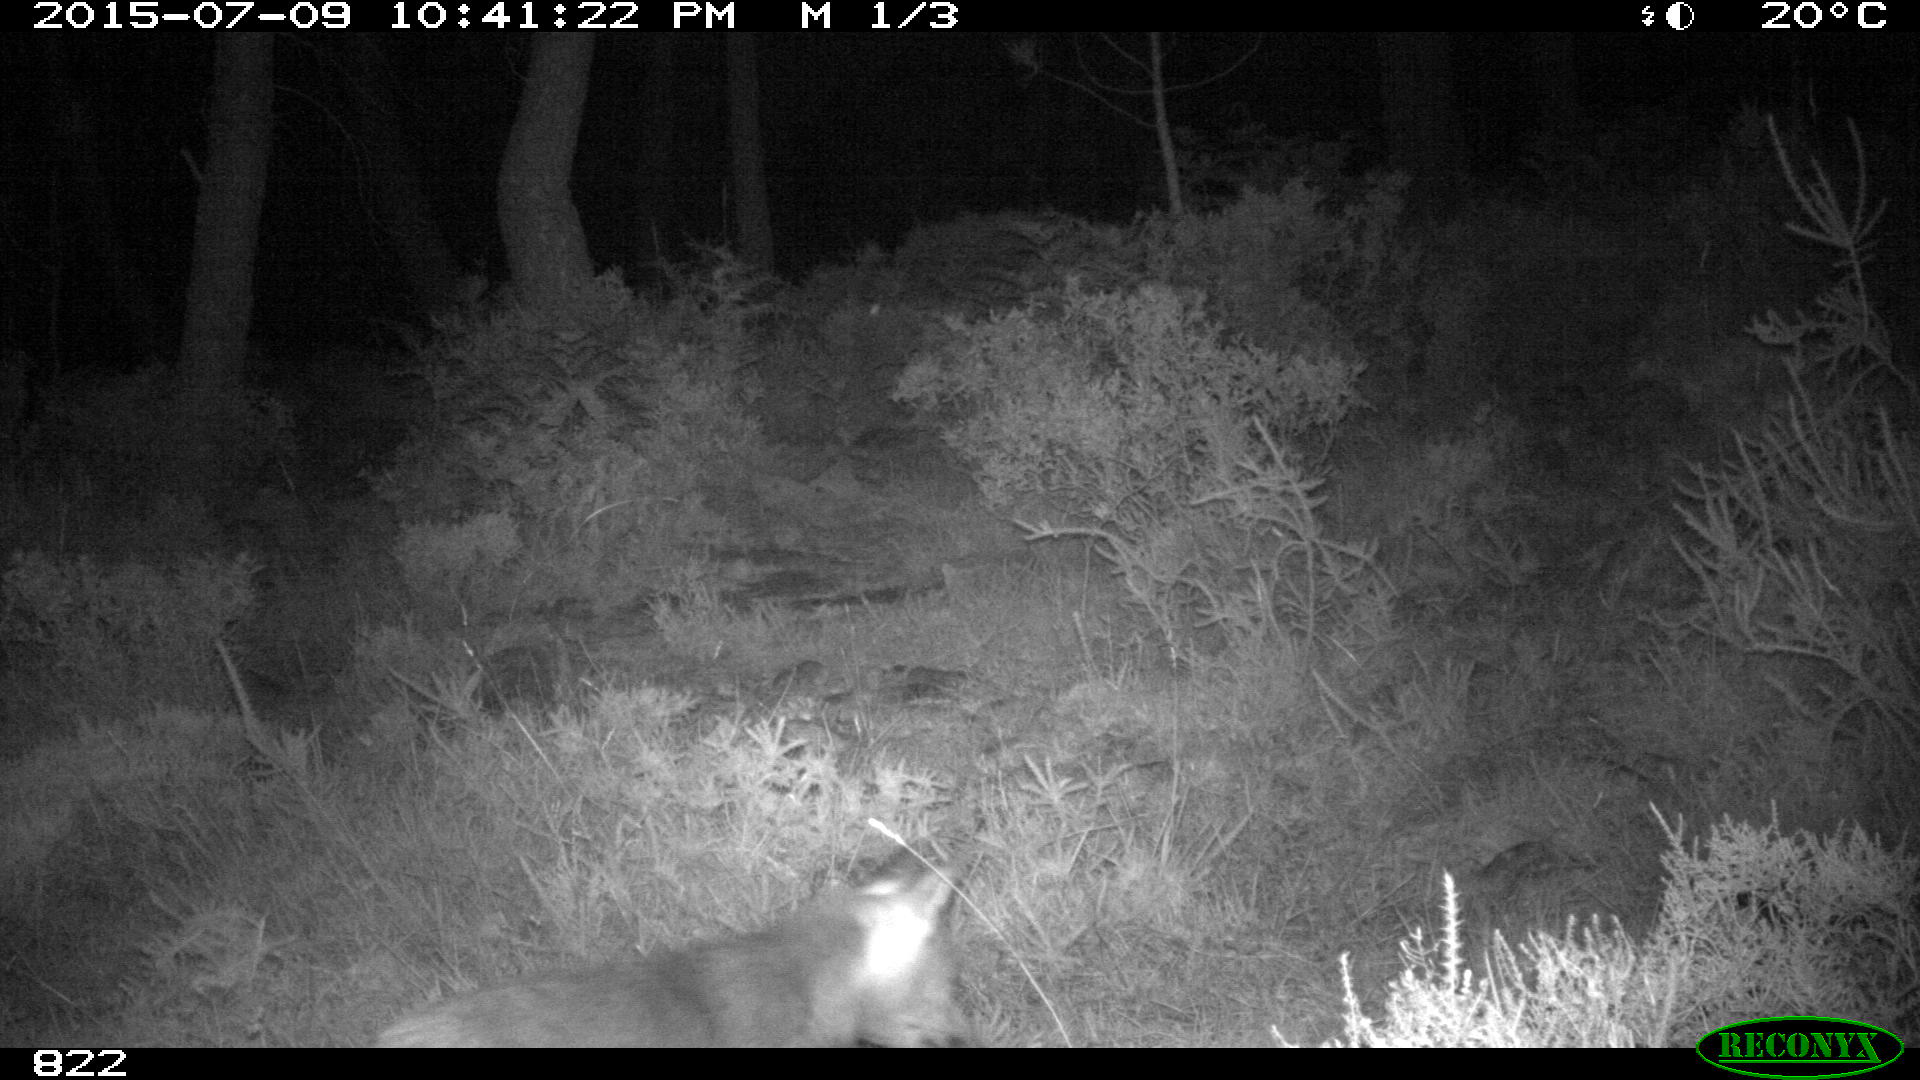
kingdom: Animalia
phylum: Chordata
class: Mammalia
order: Carnivora
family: Canidae
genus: Vulpes
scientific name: Vulpes vulpes
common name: Red fox
